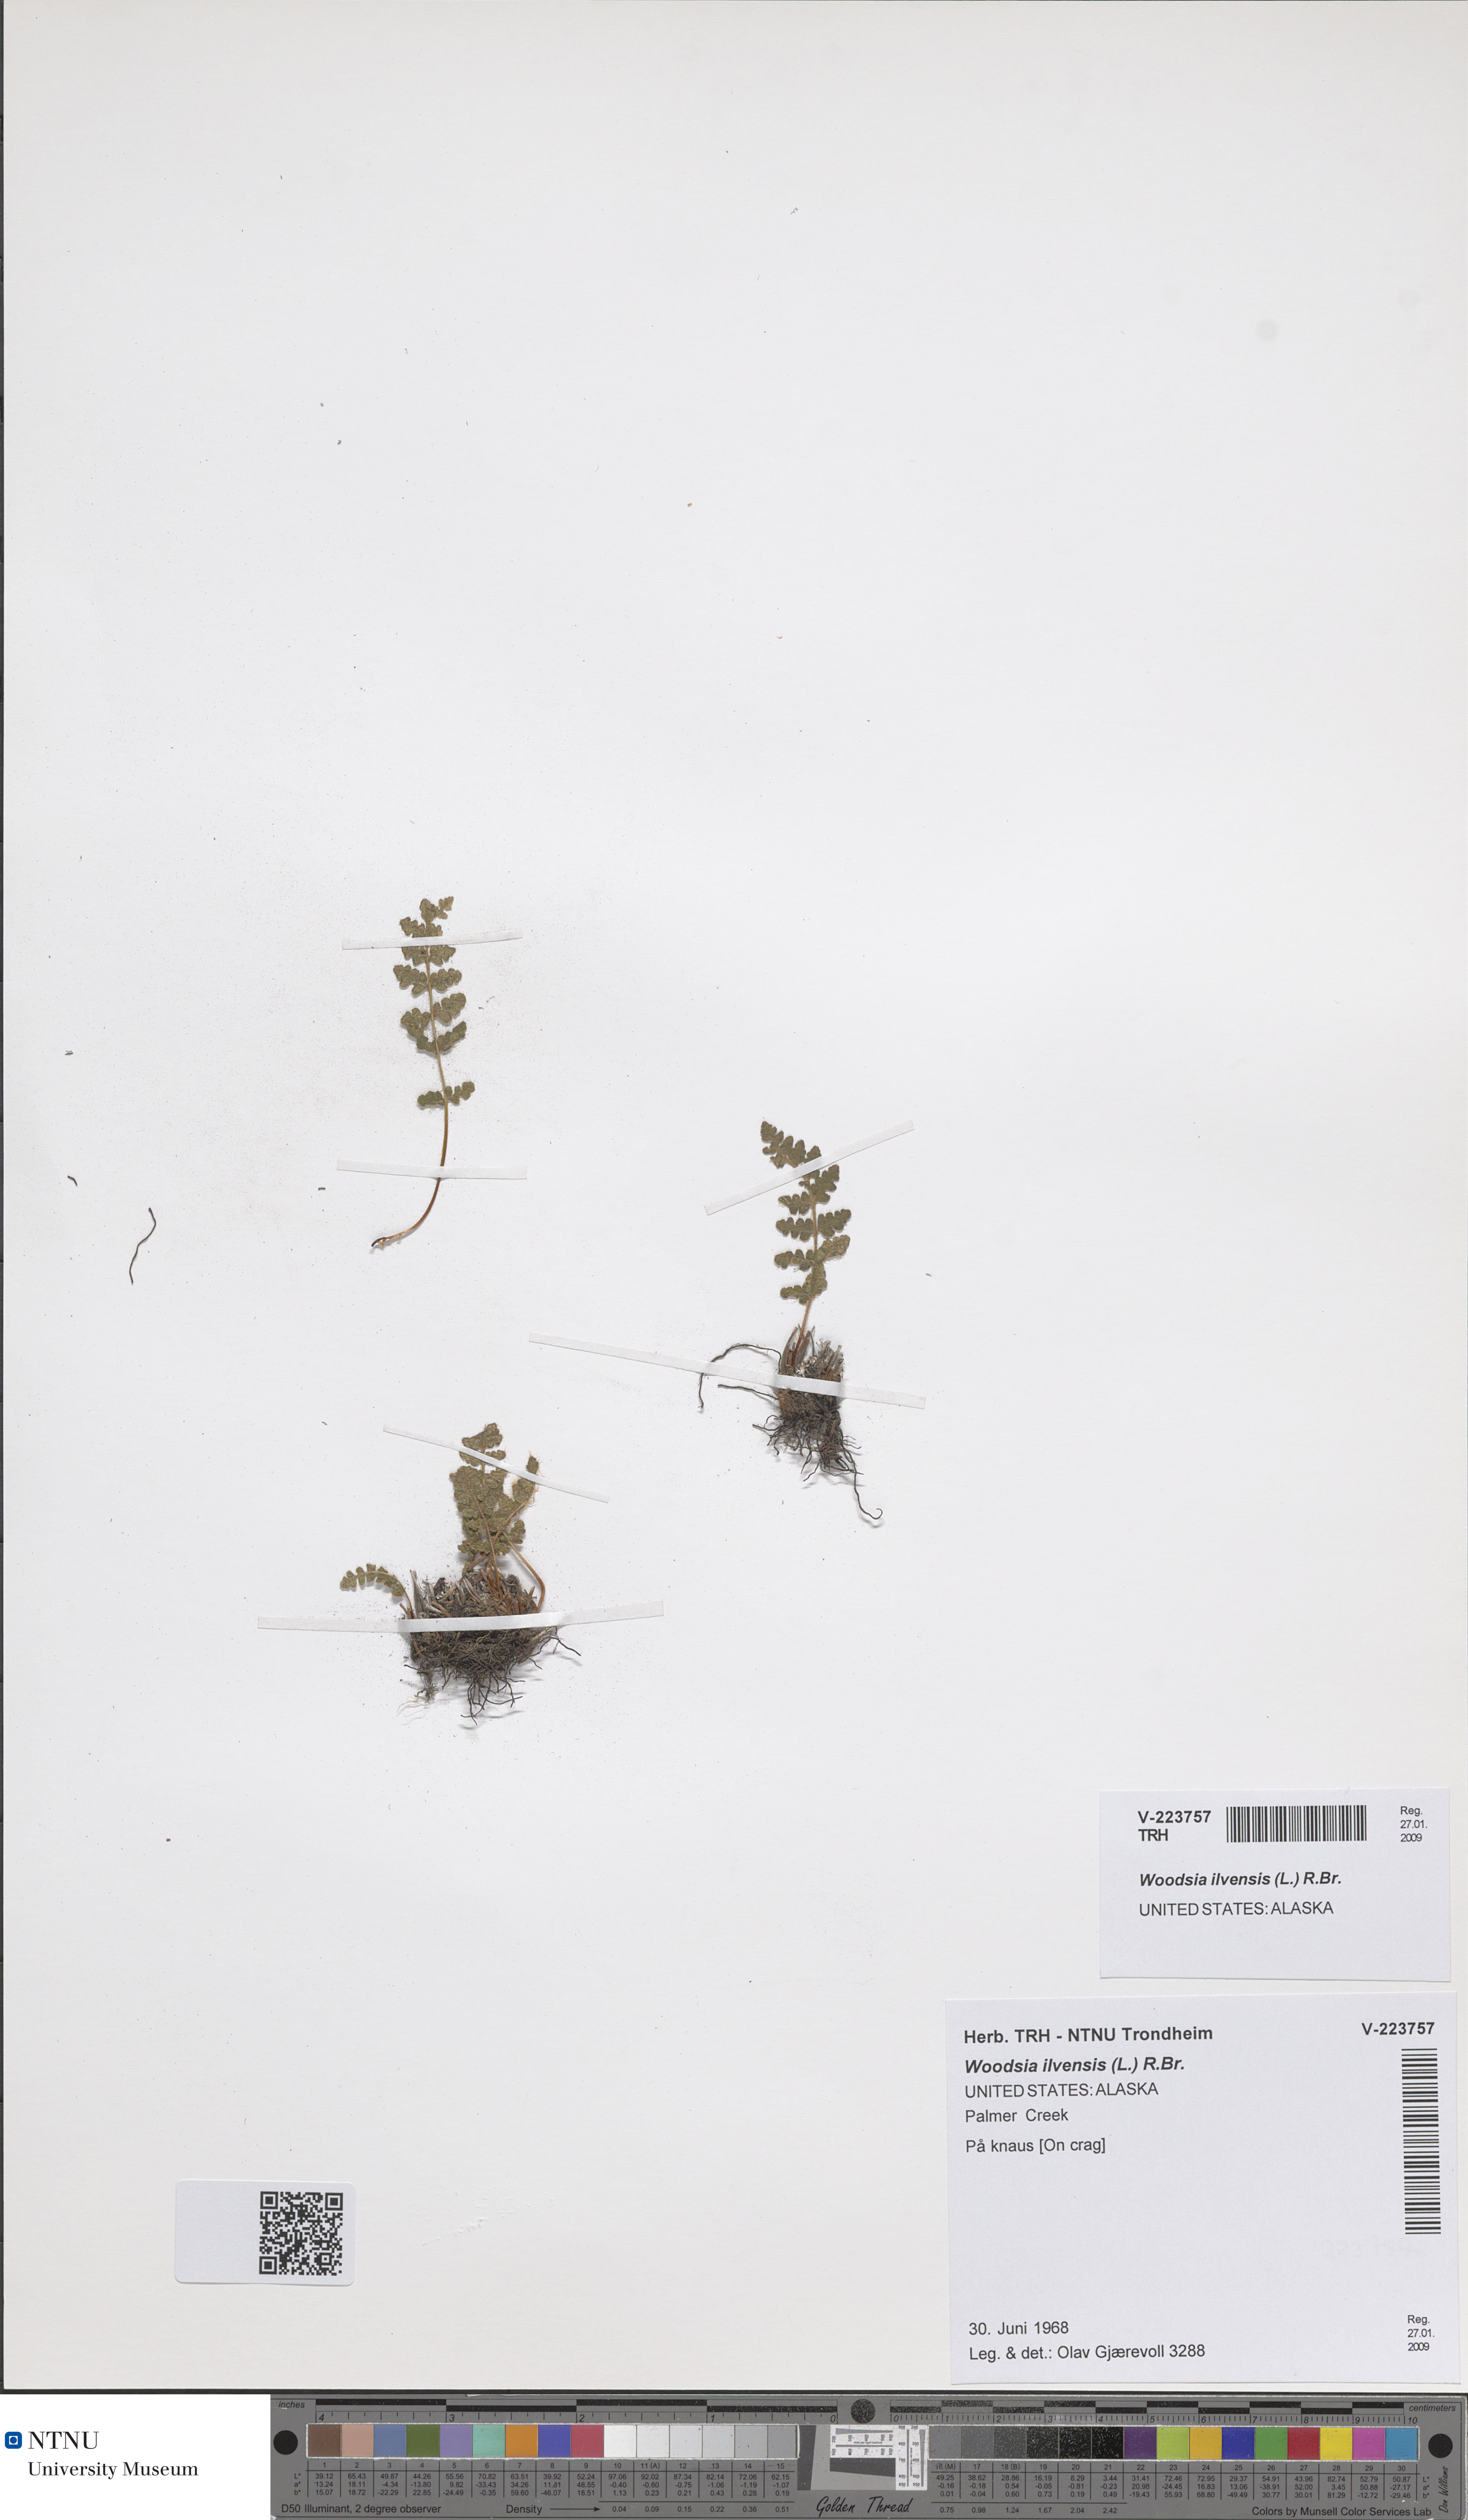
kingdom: Plantae
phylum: Tracheophyta
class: Polypodiopsida
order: Polypodiales
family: Woodsiaceae
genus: Woodsia
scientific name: Woodsia ilvensis
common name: Fragrant woodsia
